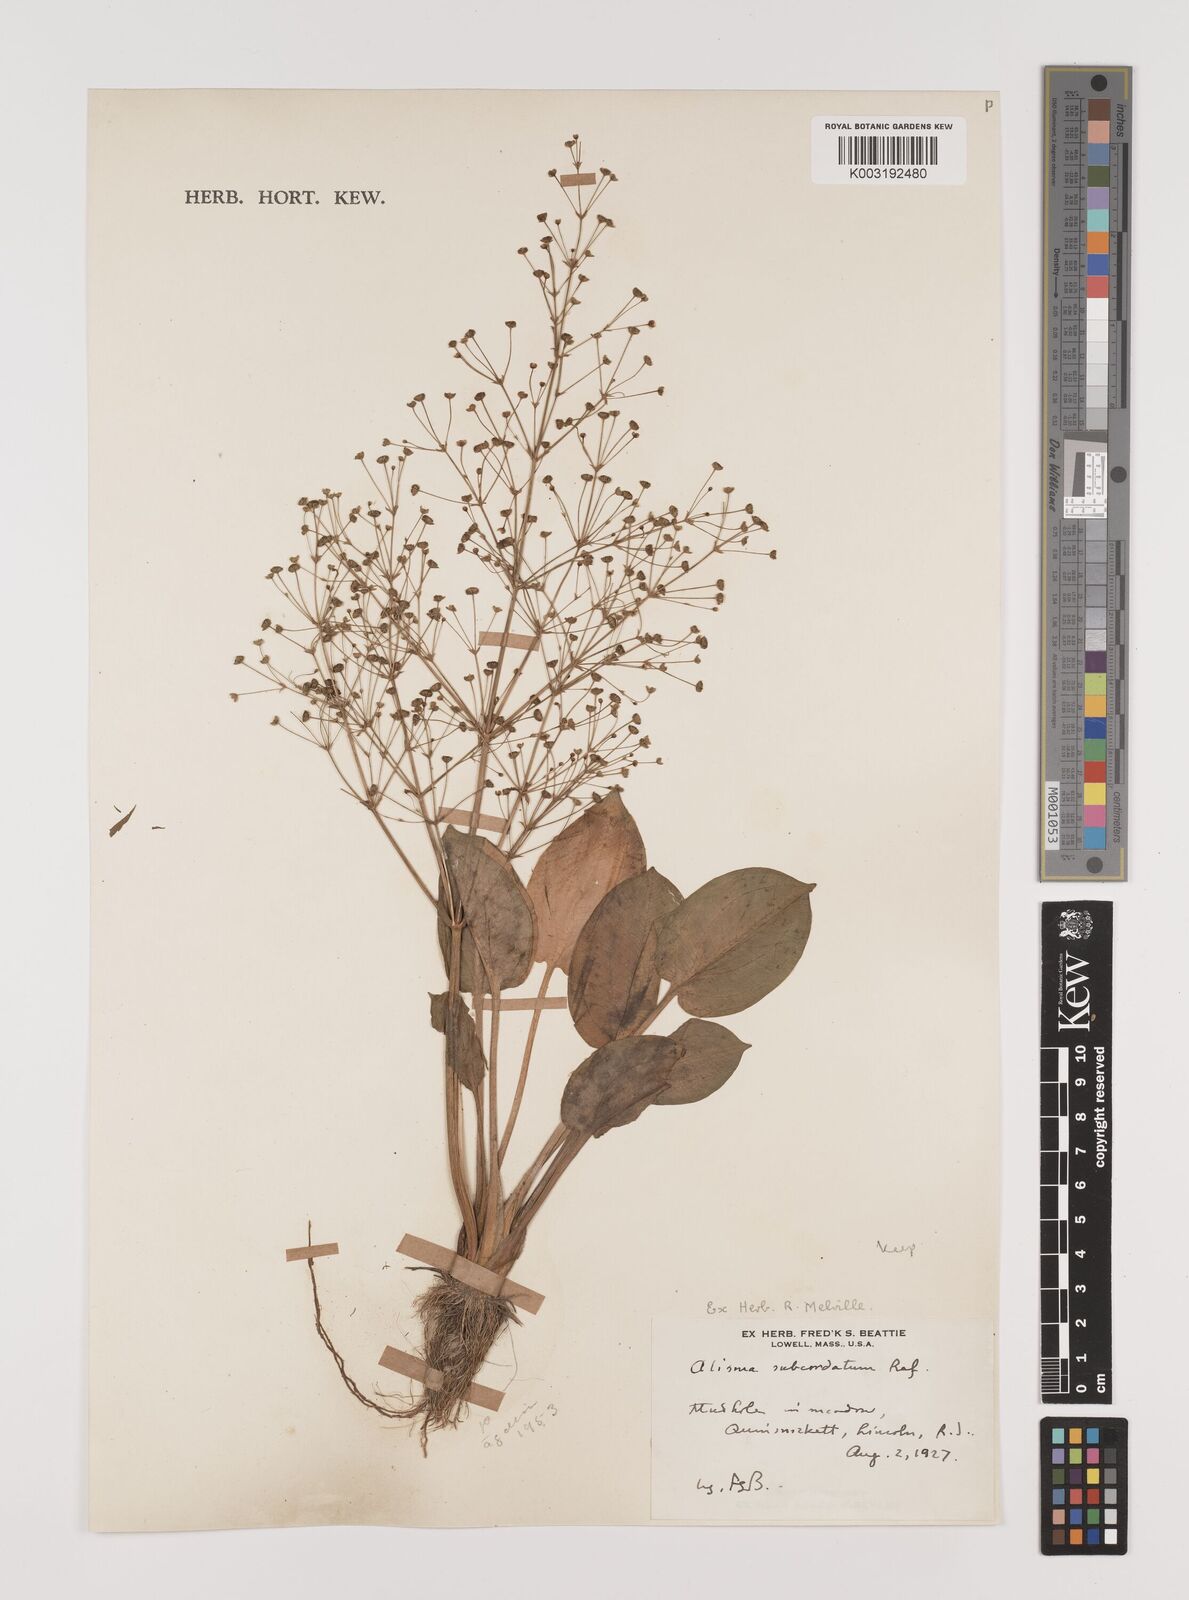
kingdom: Plantae
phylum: Tracheophyta
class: Liliopsida
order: Alismatales
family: Alismataceae
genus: Alisma
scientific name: Alisma subcordatum
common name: Southern water-plantain
